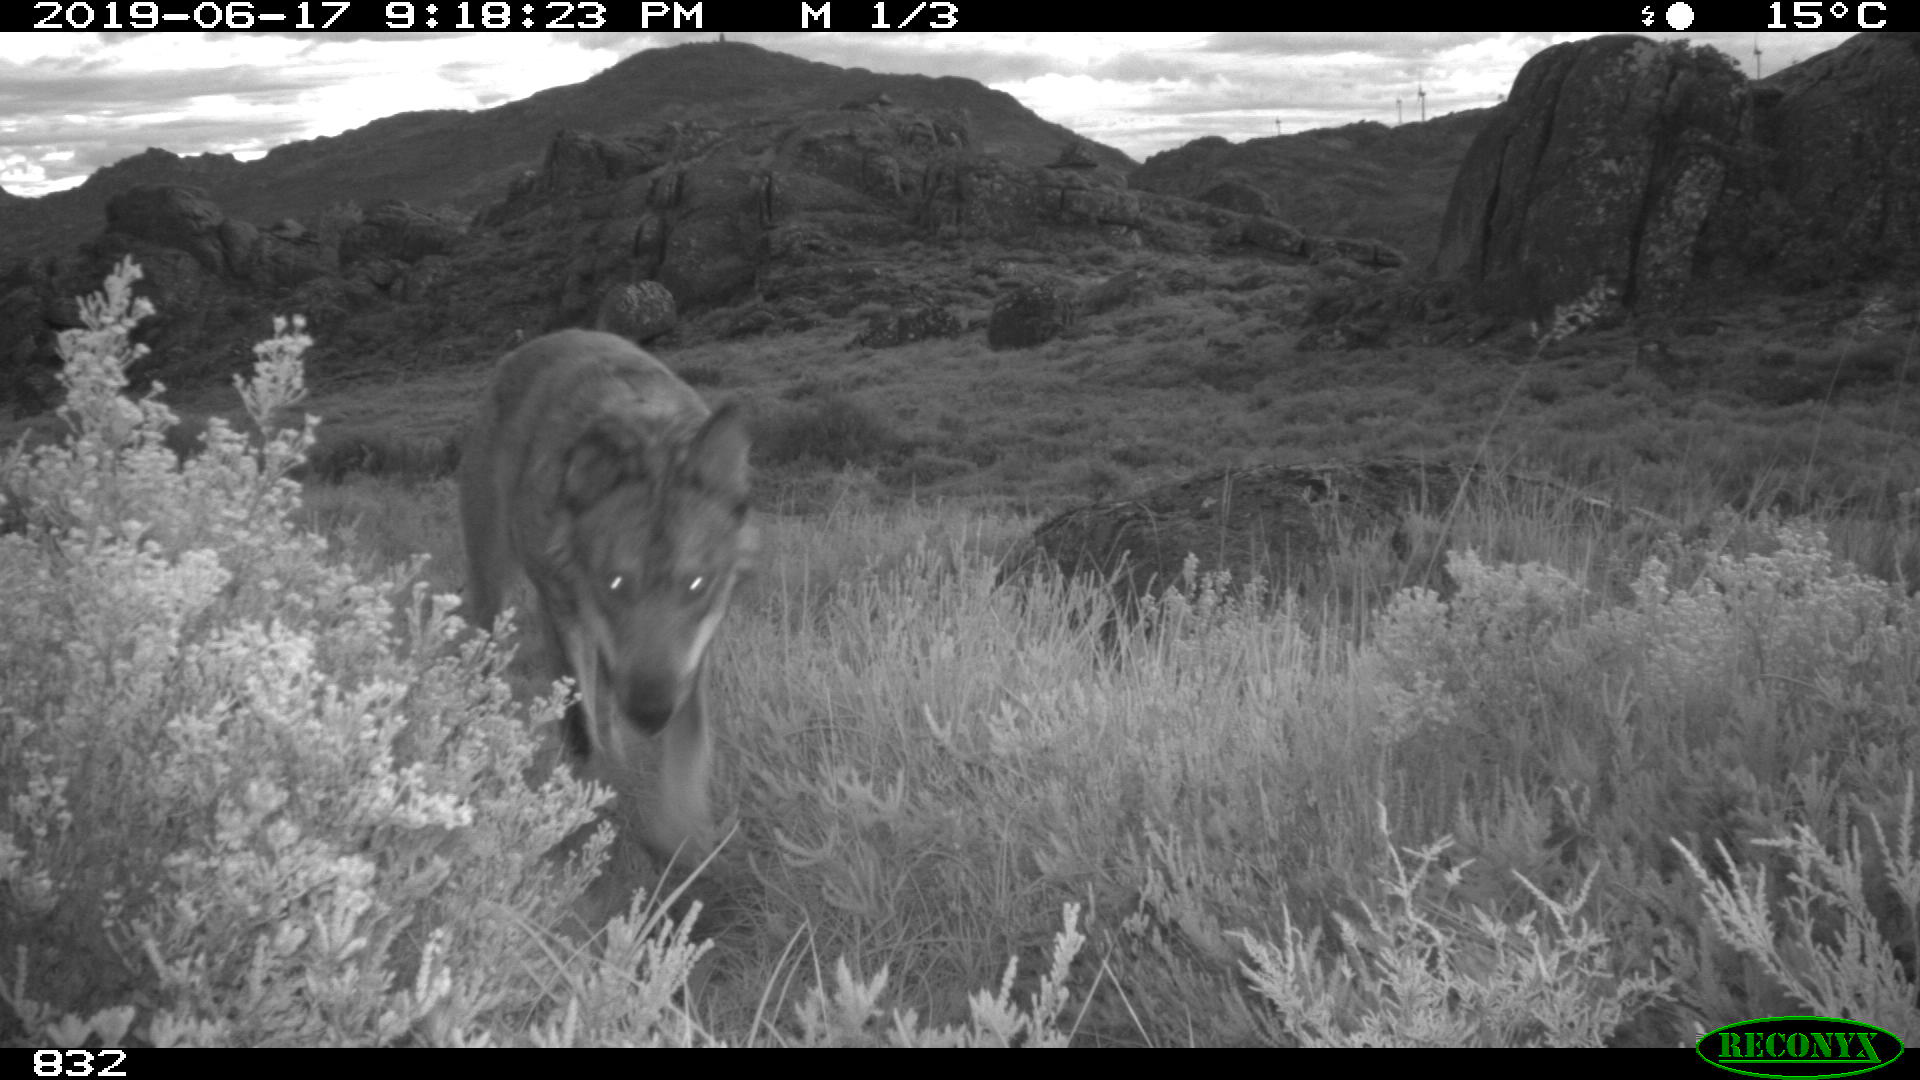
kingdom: Animalia
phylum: Chordata
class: Mammalia
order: Carnivora
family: Canidae
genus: Canis
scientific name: Canis lupus
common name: Gray wolf
